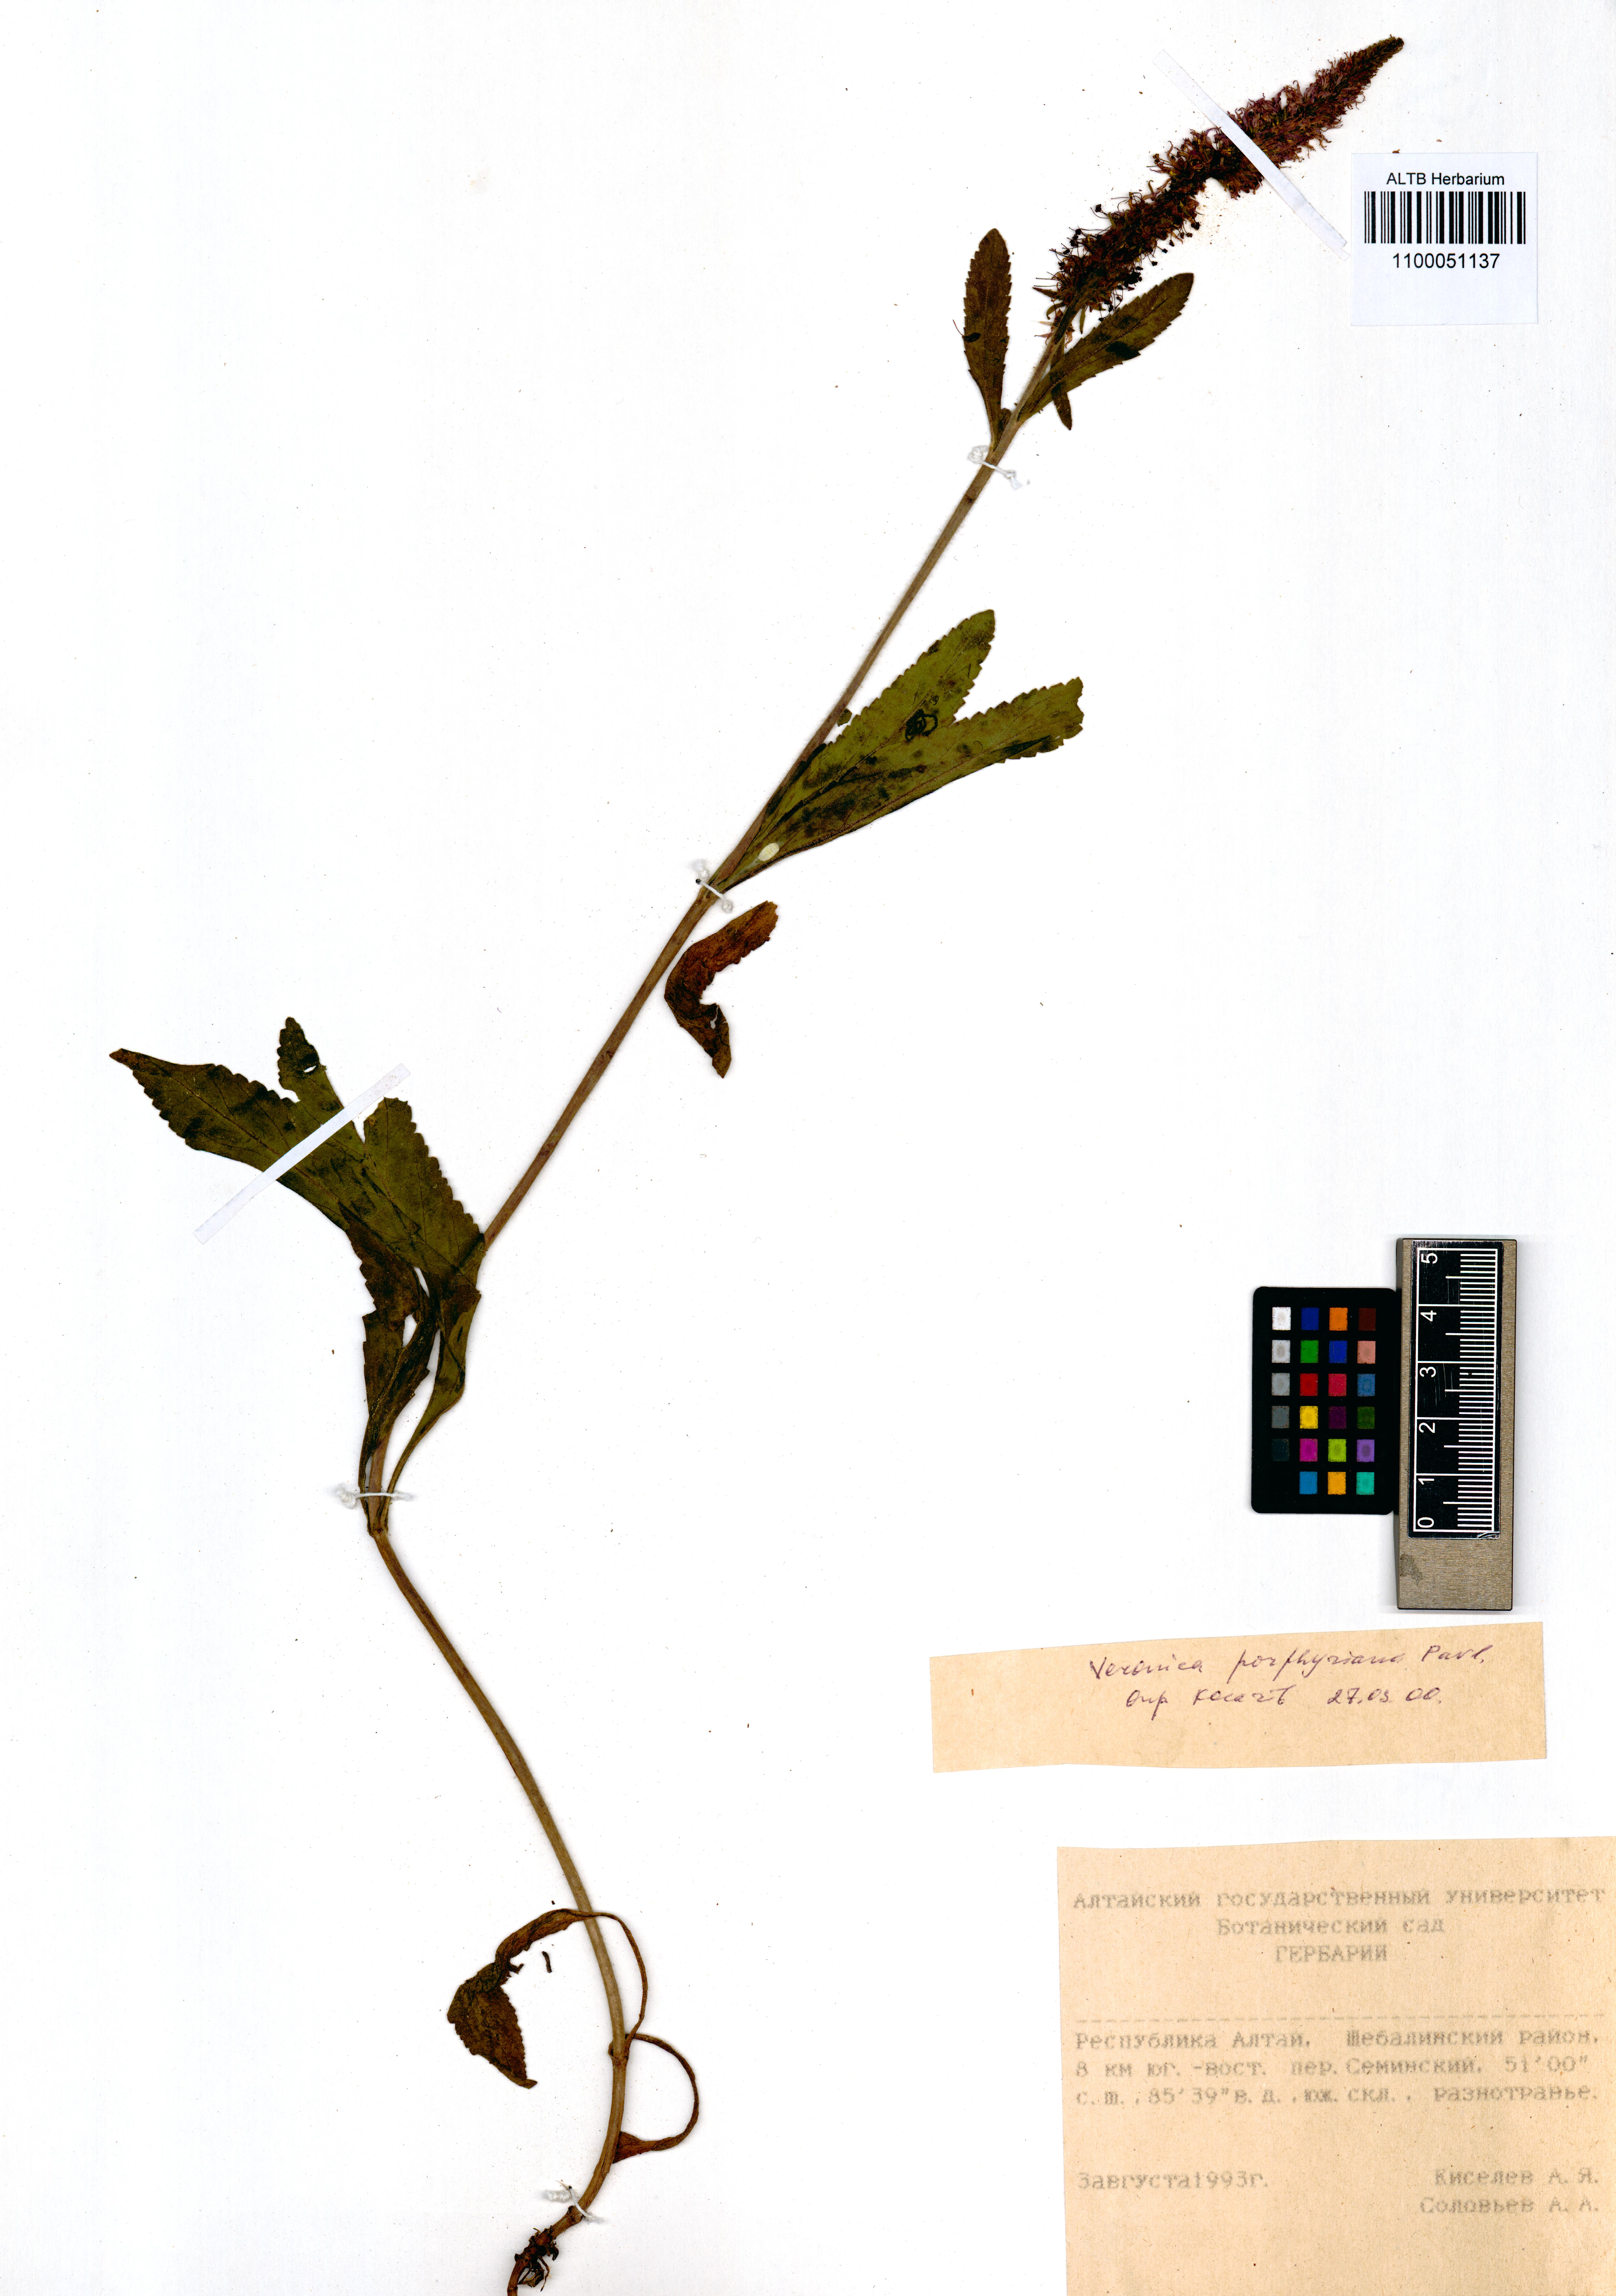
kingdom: Plantae
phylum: Tracheophyta
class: Magnoliopsida
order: Lamiales
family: Plantaginaceae
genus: Veronica
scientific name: Veronica porphyriana
